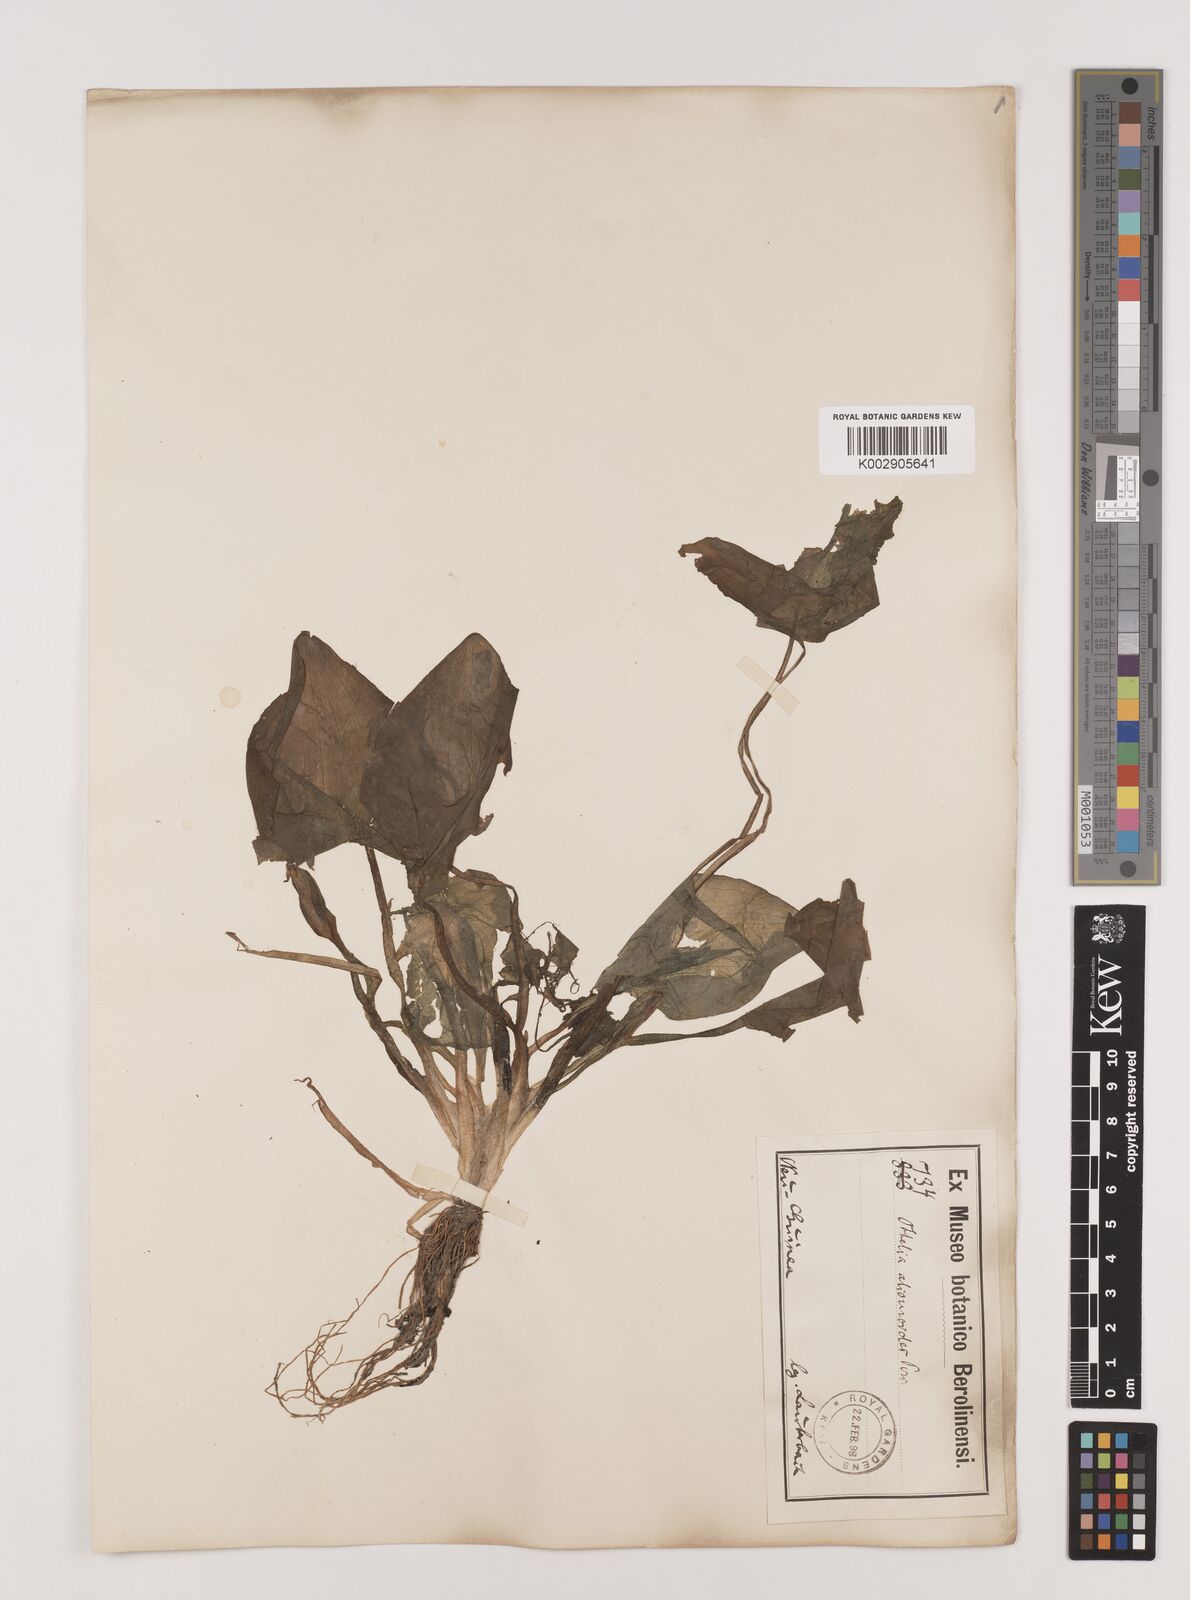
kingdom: Plantae
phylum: Tracheophyta
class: Liliopsida
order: Alismatales
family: Hydrocharitaceae
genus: Ottelia
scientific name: Ottelia alismoides
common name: Duck-lettuce
